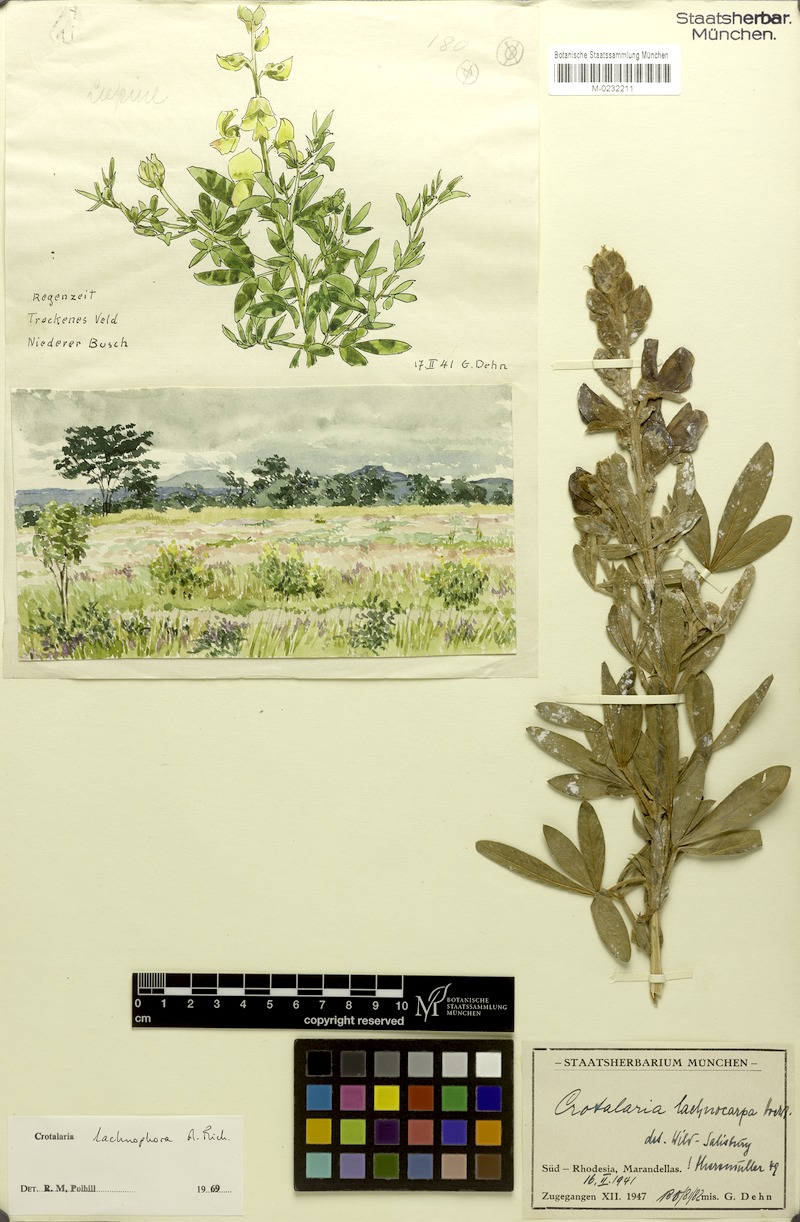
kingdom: Plantae
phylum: Tracheophyta
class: Magnoliopsida
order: Fabales
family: Fabaceae
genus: Crotalaria
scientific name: Crotalaria lachnophora
